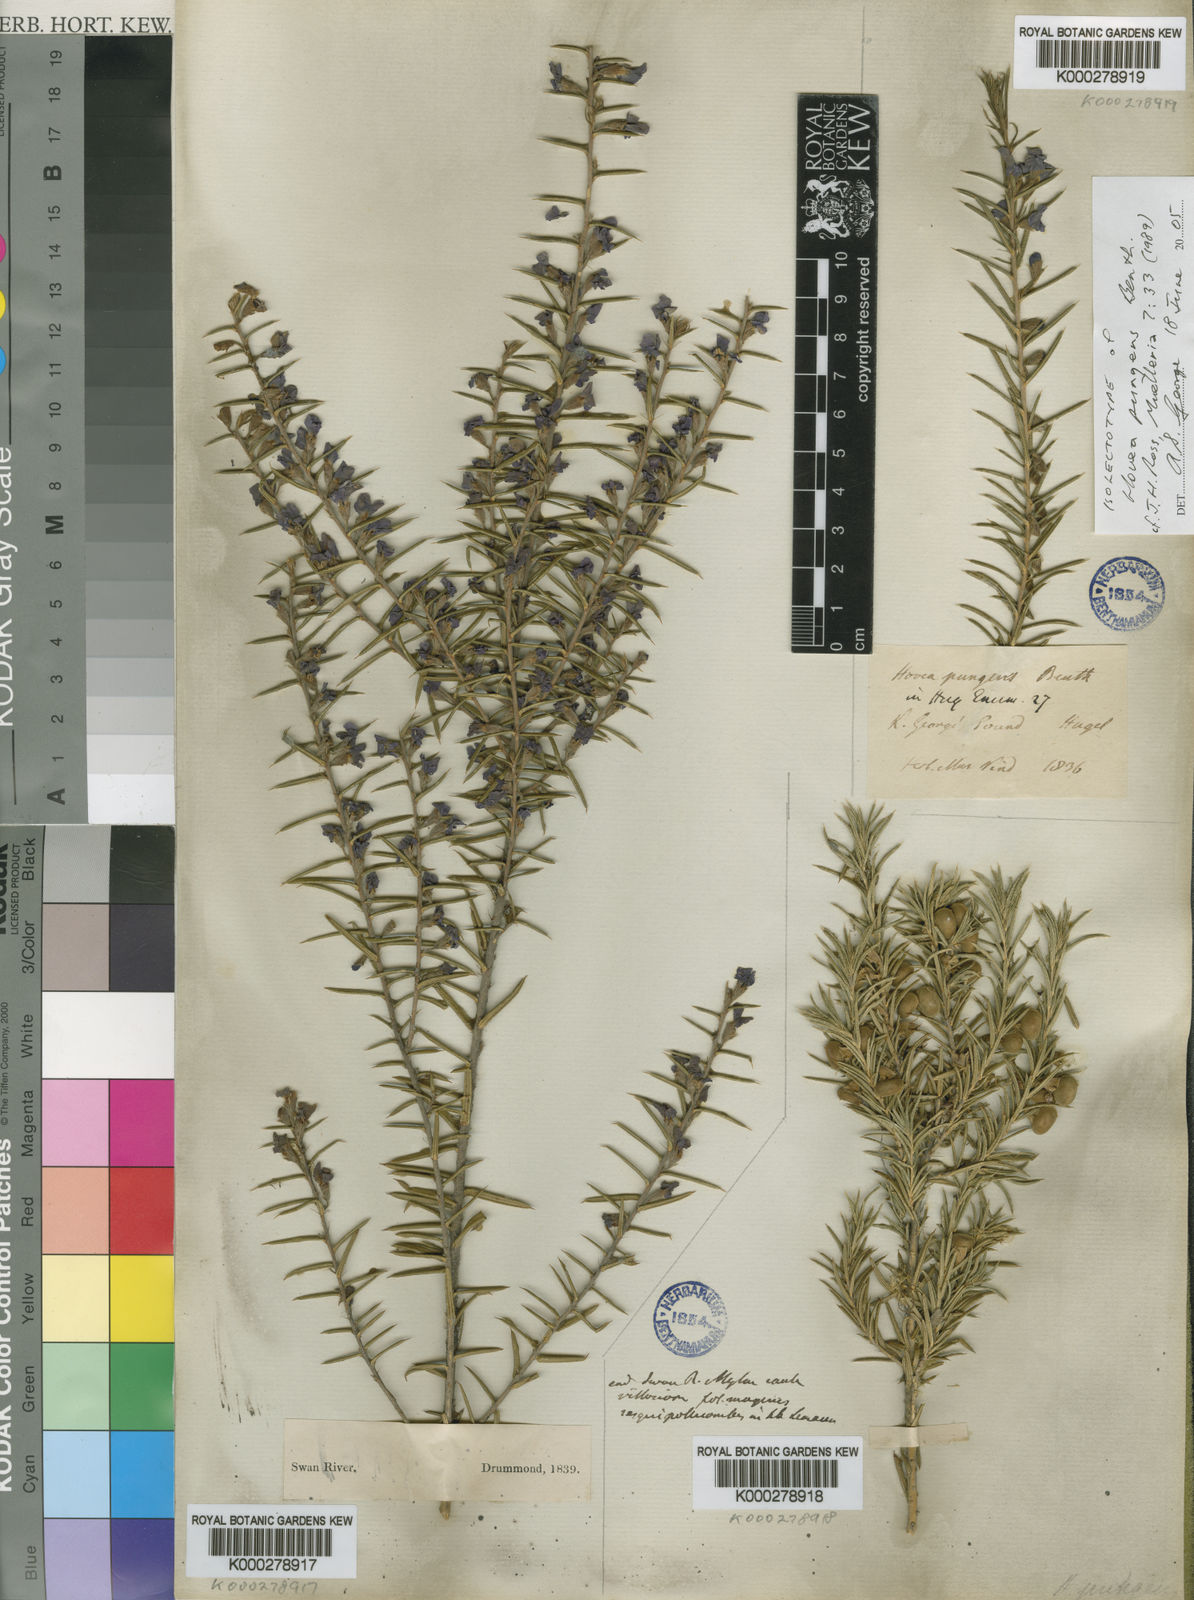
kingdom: Plantae
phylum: Tracheophyta
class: Magnoliopsida
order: Fabales
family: Fabaceae
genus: Hovea
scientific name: Hovea pungens
